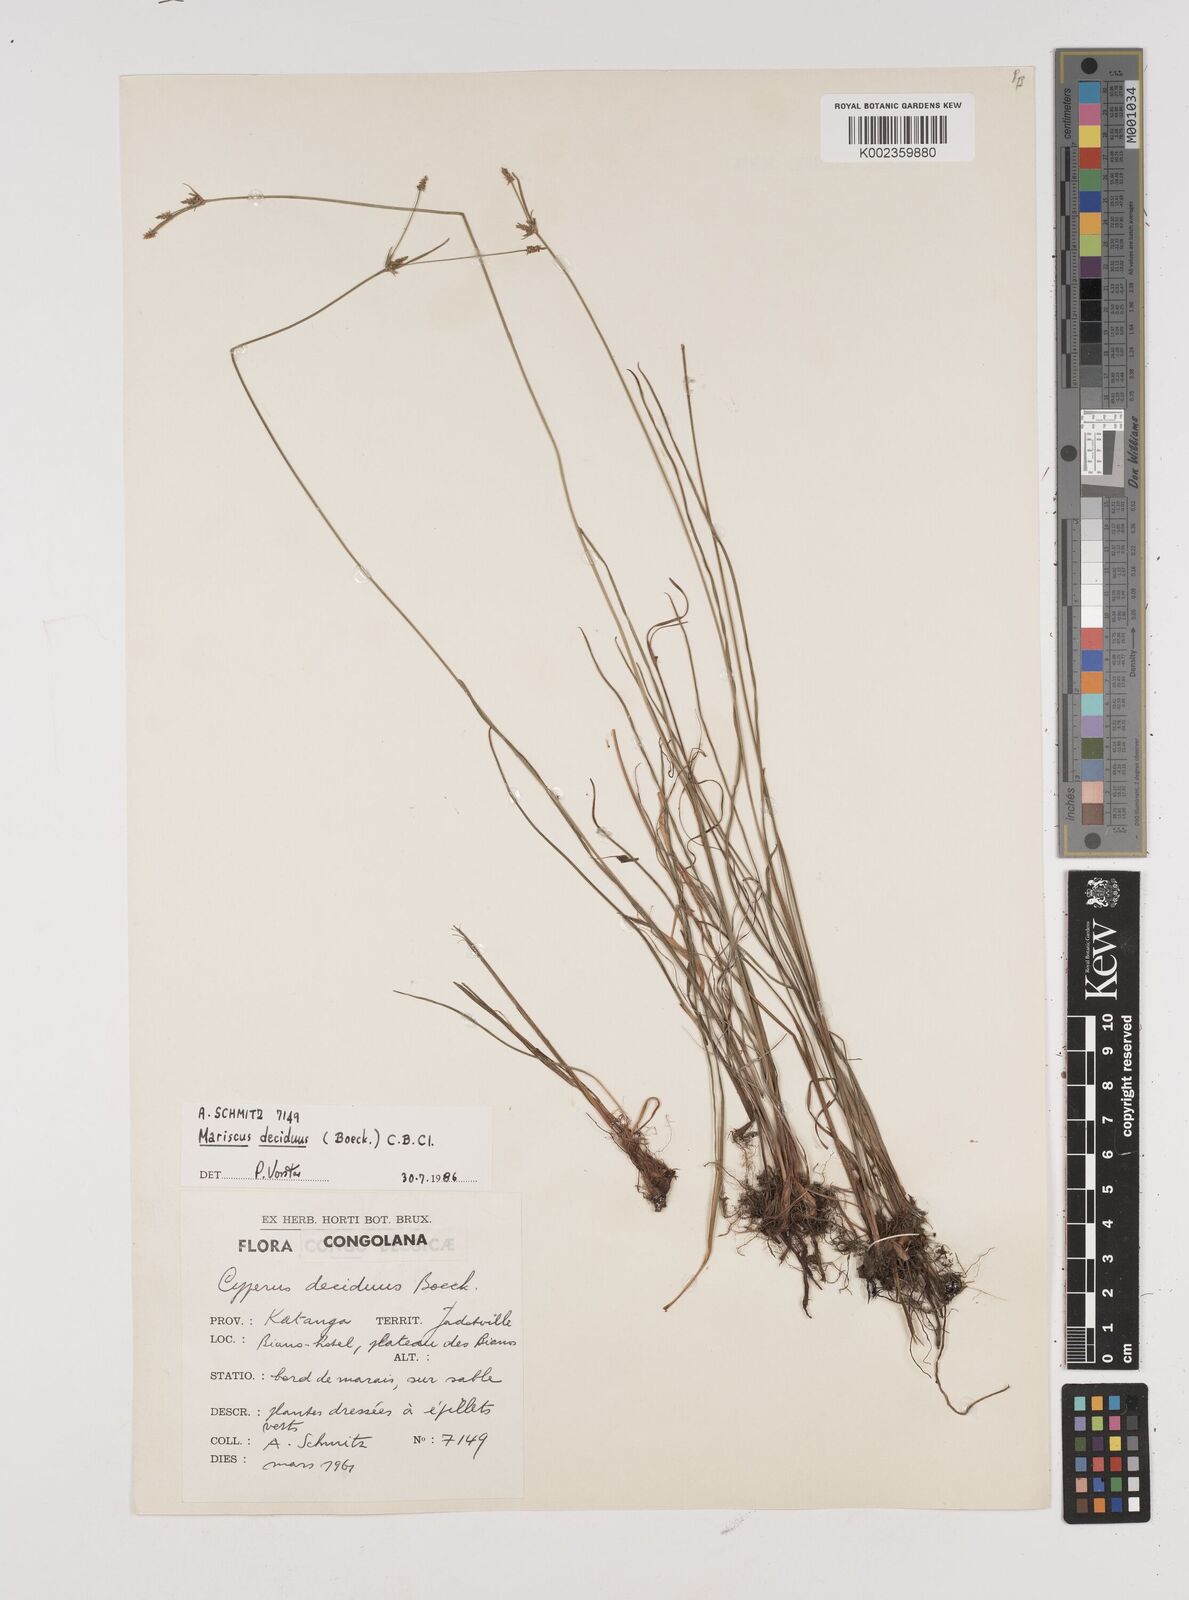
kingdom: Plantae
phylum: Tracheophyta
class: Liliopsida
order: Poales
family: Cyperaceae
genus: Cyperus
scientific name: Cyperus deciduus
